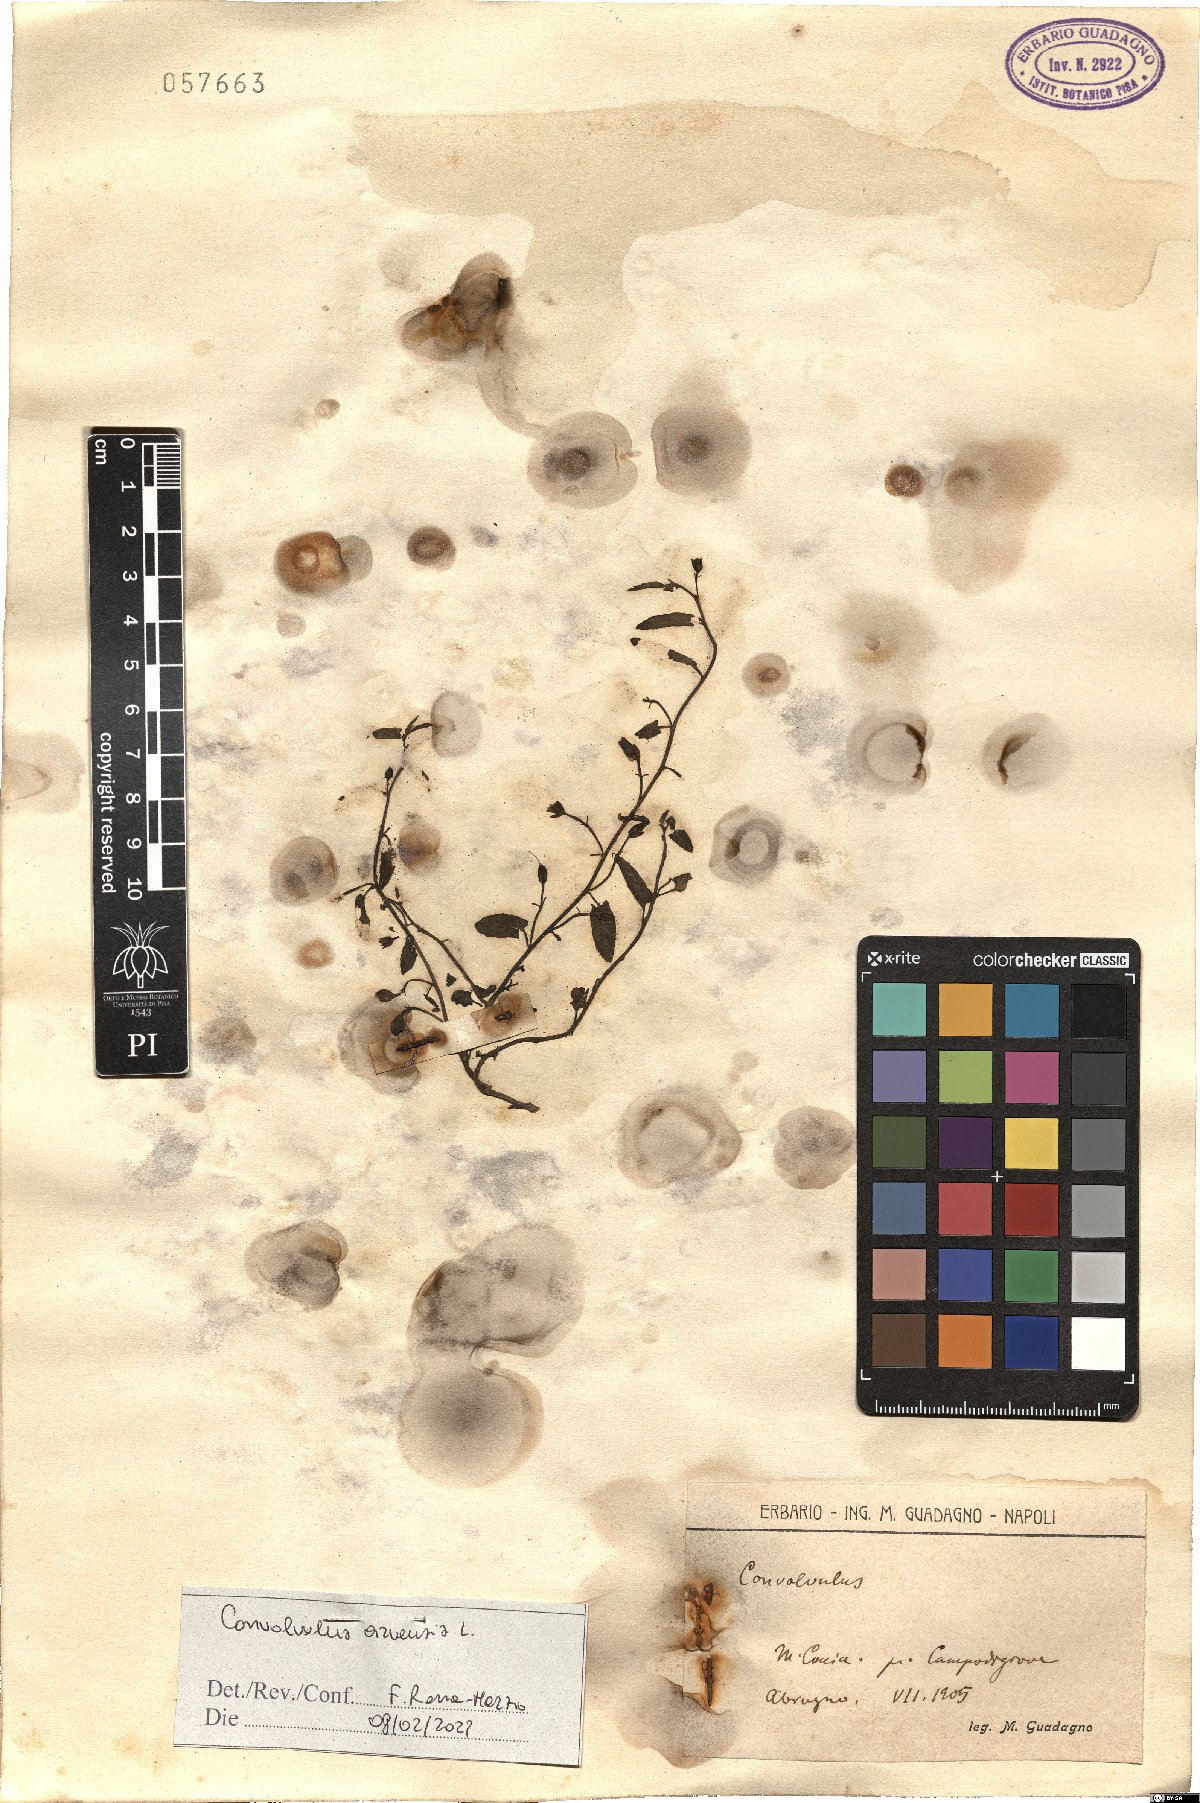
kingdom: Plantae
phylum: Tracheophyta
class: Magnoliopsida
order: Solanales
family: Convolvulaceae
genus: Convolvulus
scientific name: Convolvulus arvensis
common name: Field bindweed
